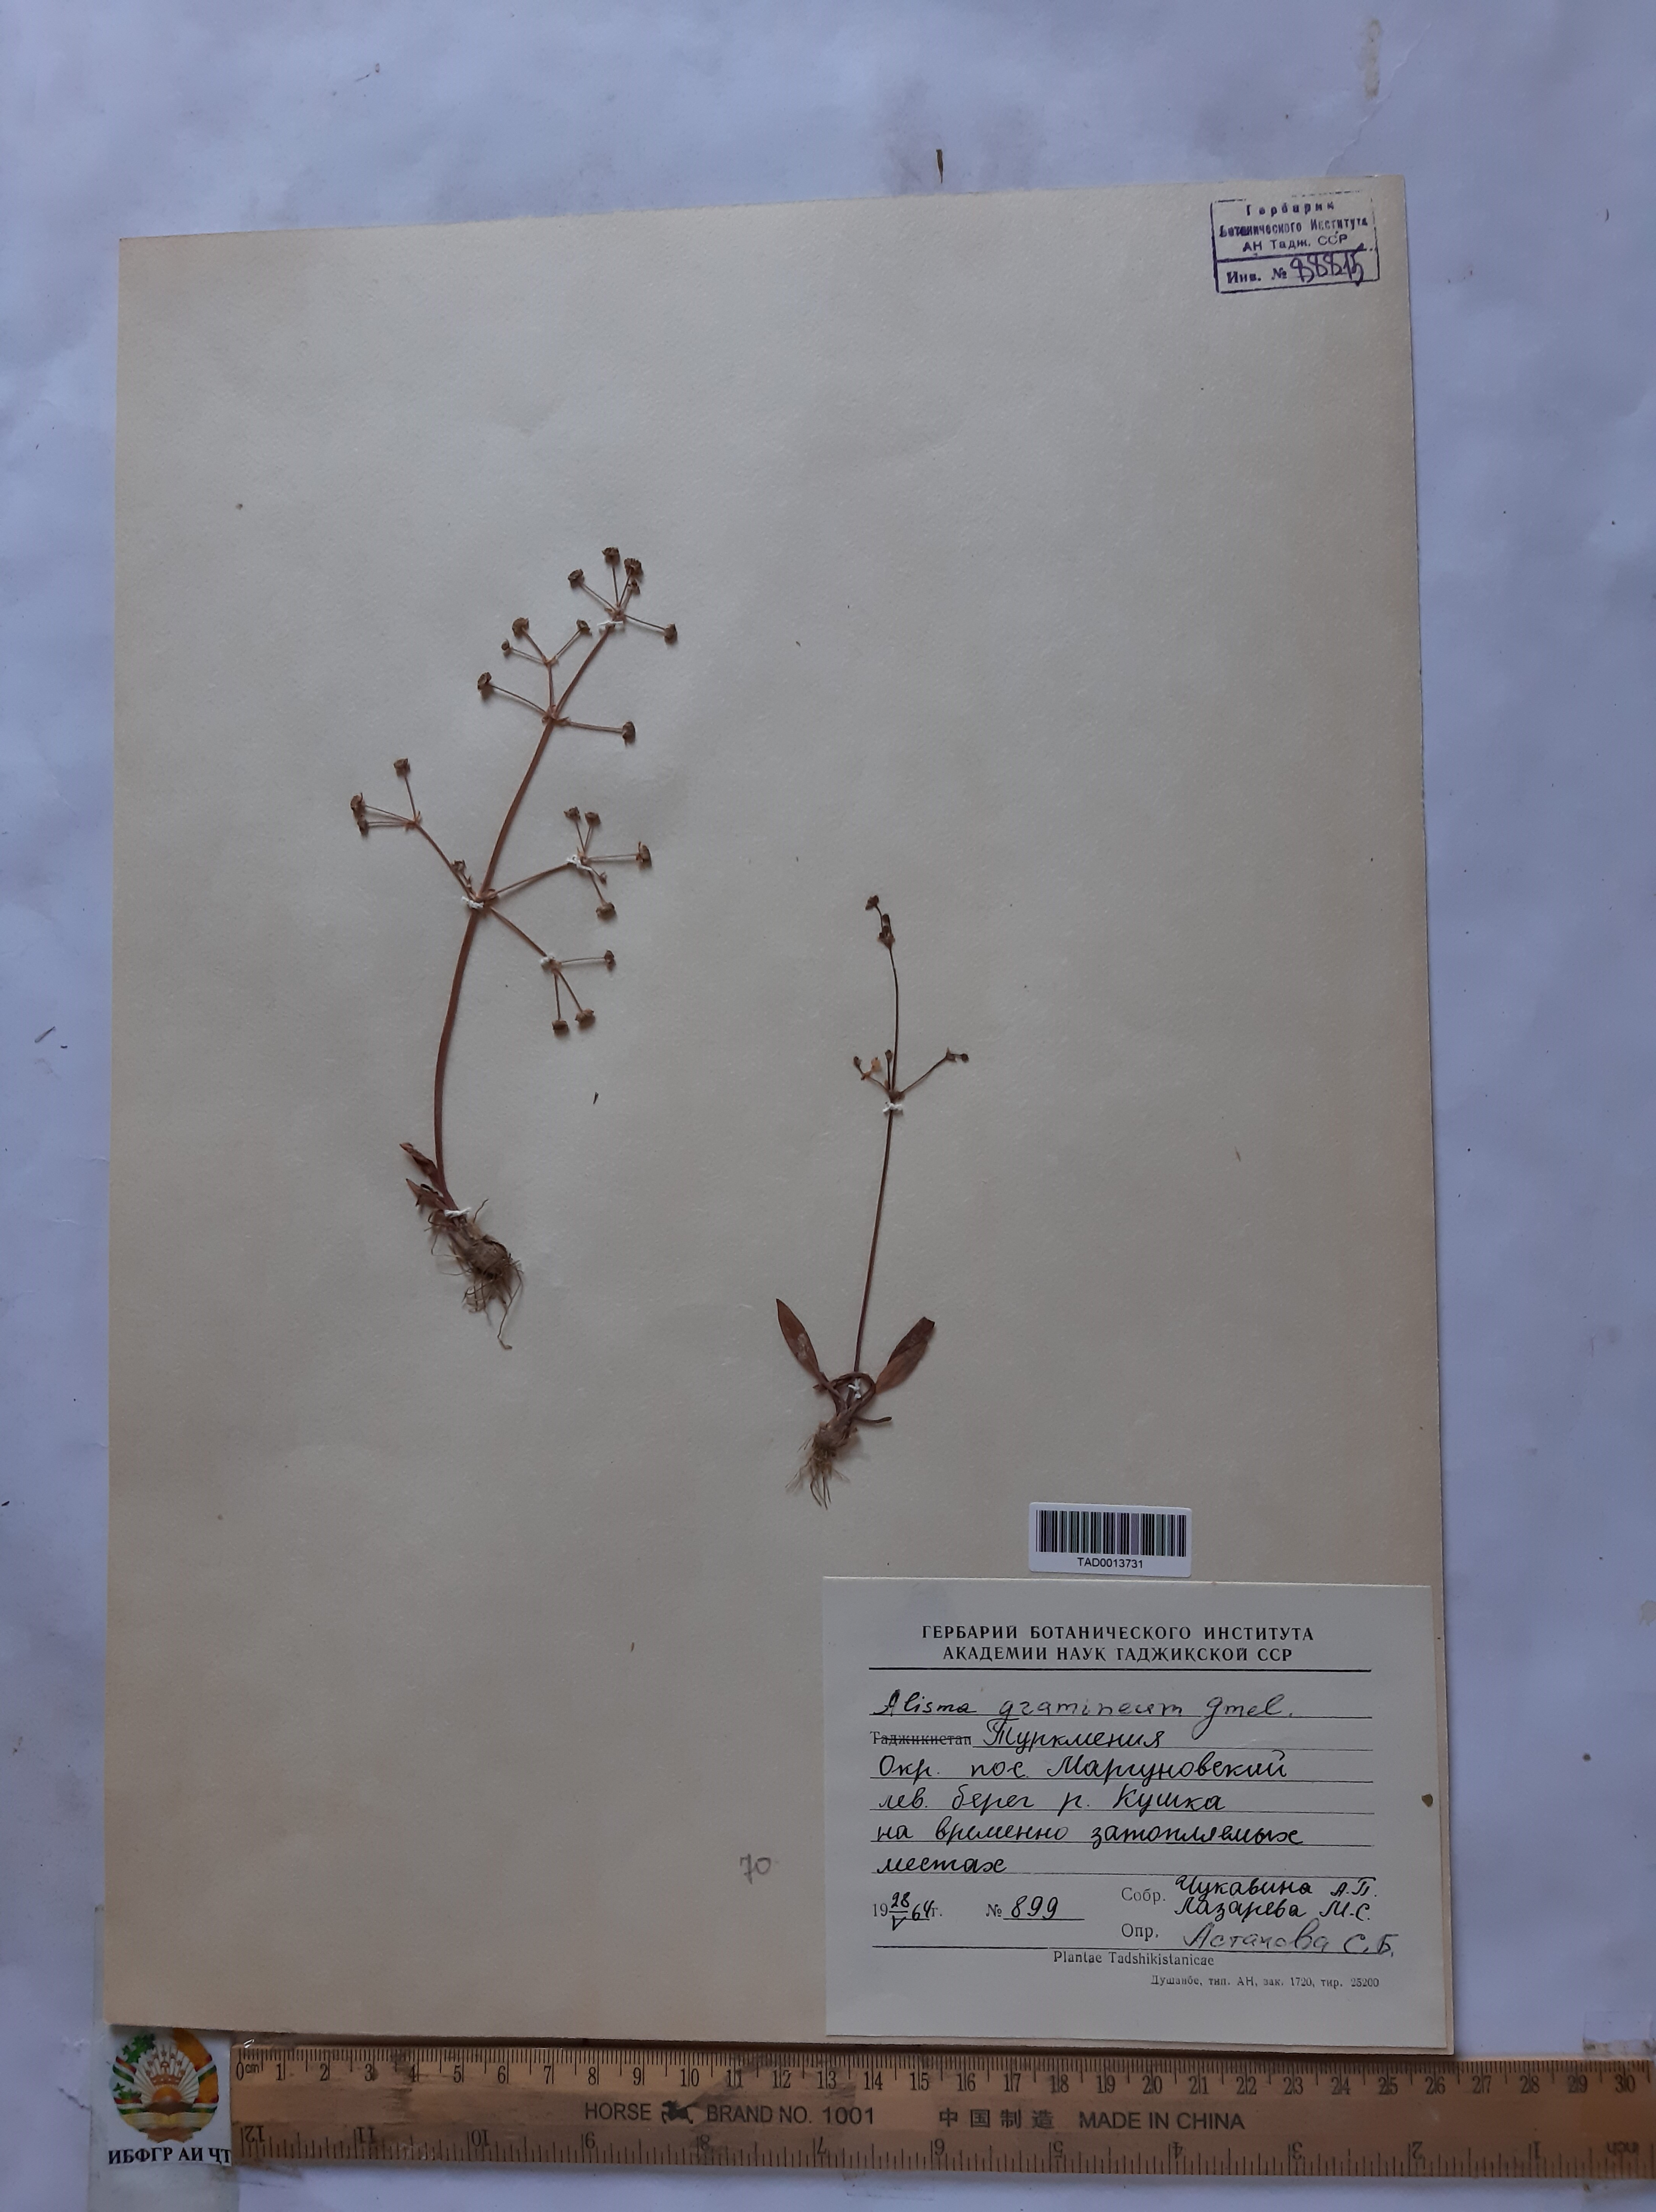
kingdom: Plantae
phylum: Tracheophyta
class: Liliopsida
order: Alismatales
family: Alismataceae
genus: Alisma
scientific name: Alisma gramineum
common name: Ribbon-leaved water-plantain
